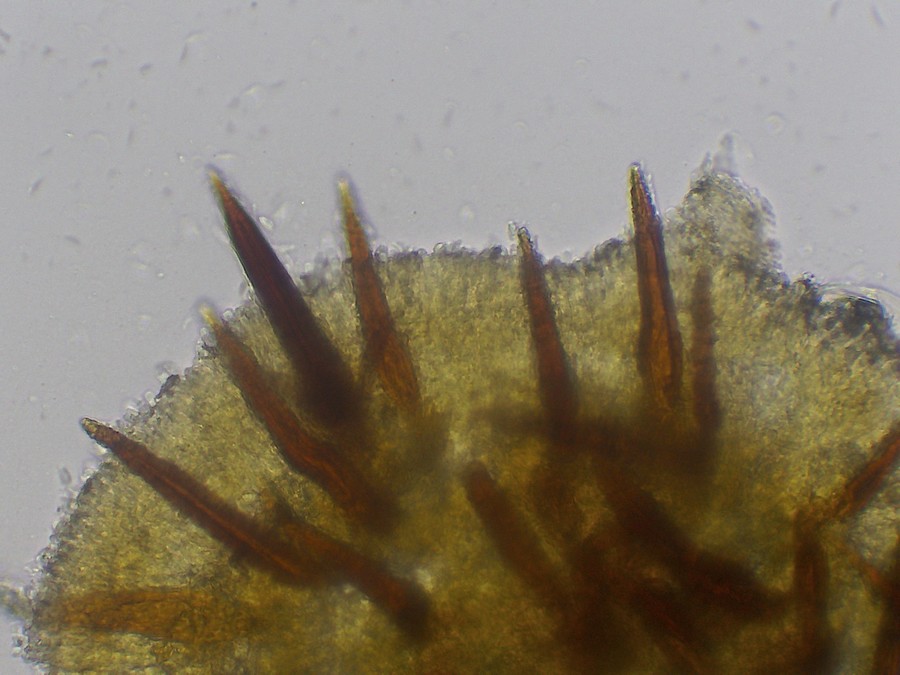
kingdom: Fungi
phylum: Basidiomycota
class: Agaricomycetes
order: Hymenochaetales
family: Hymenochaetaceae
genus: Hydnoporia
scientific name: Hydnoporia corrugata
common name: sprække-ruslædersvamp
